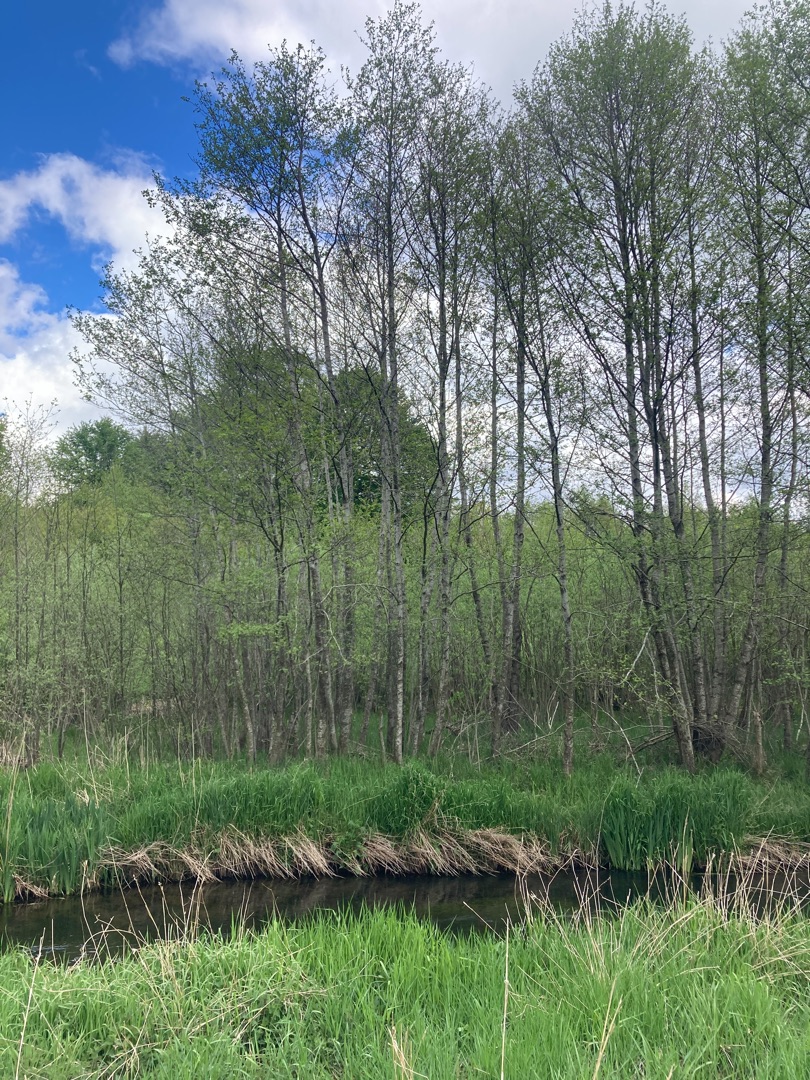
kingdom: Plantae
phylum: Tracheophyta
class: Magnoliopsida
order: Fagales
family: Betulaceae
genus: Alnus
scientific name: Alnus incana
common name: Grå-el/hvid-el
